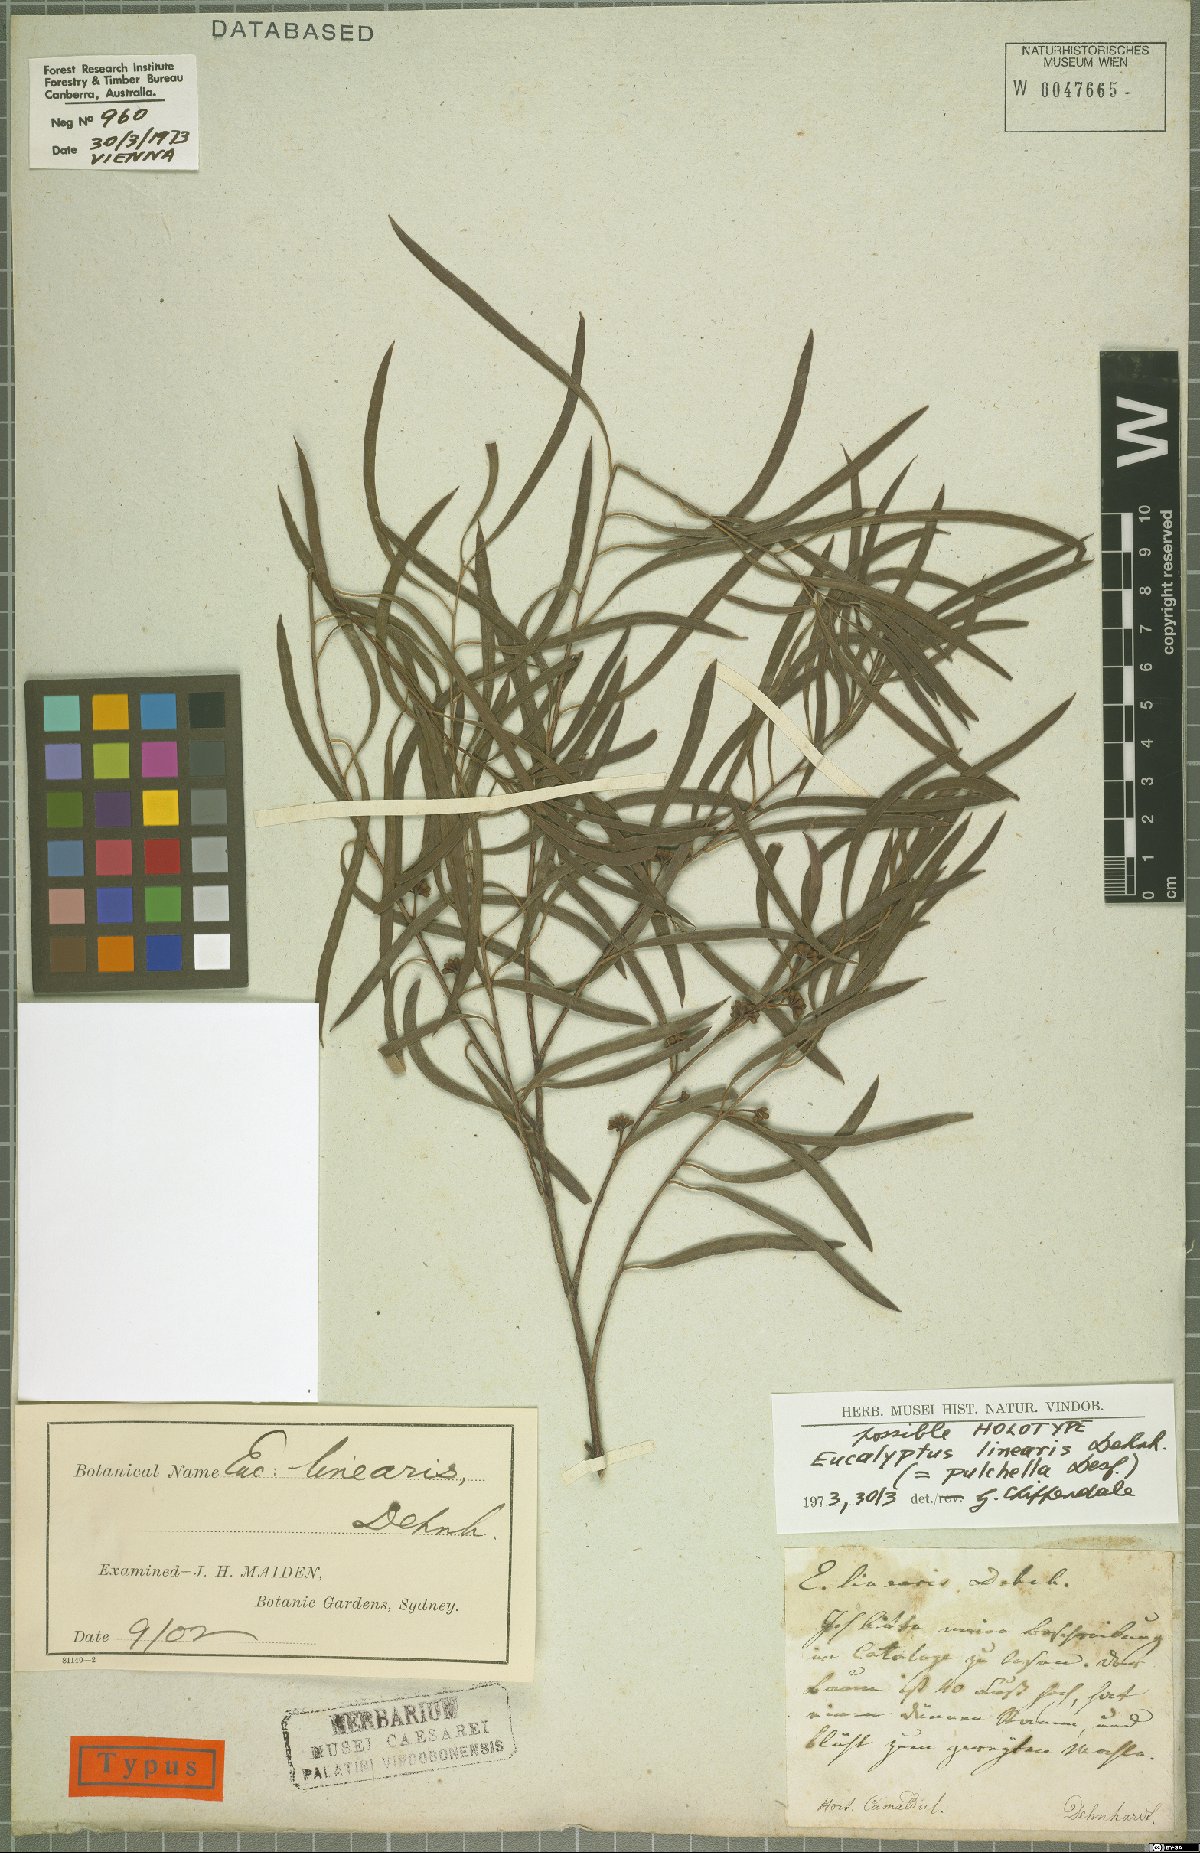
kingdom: Plantae
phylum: Tracheophyta
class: Magnoliopsida
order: Myrtales
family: Myrtaceae
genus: Eucalyptus
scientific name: Eucalyptus pulchella
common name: White peppermint
